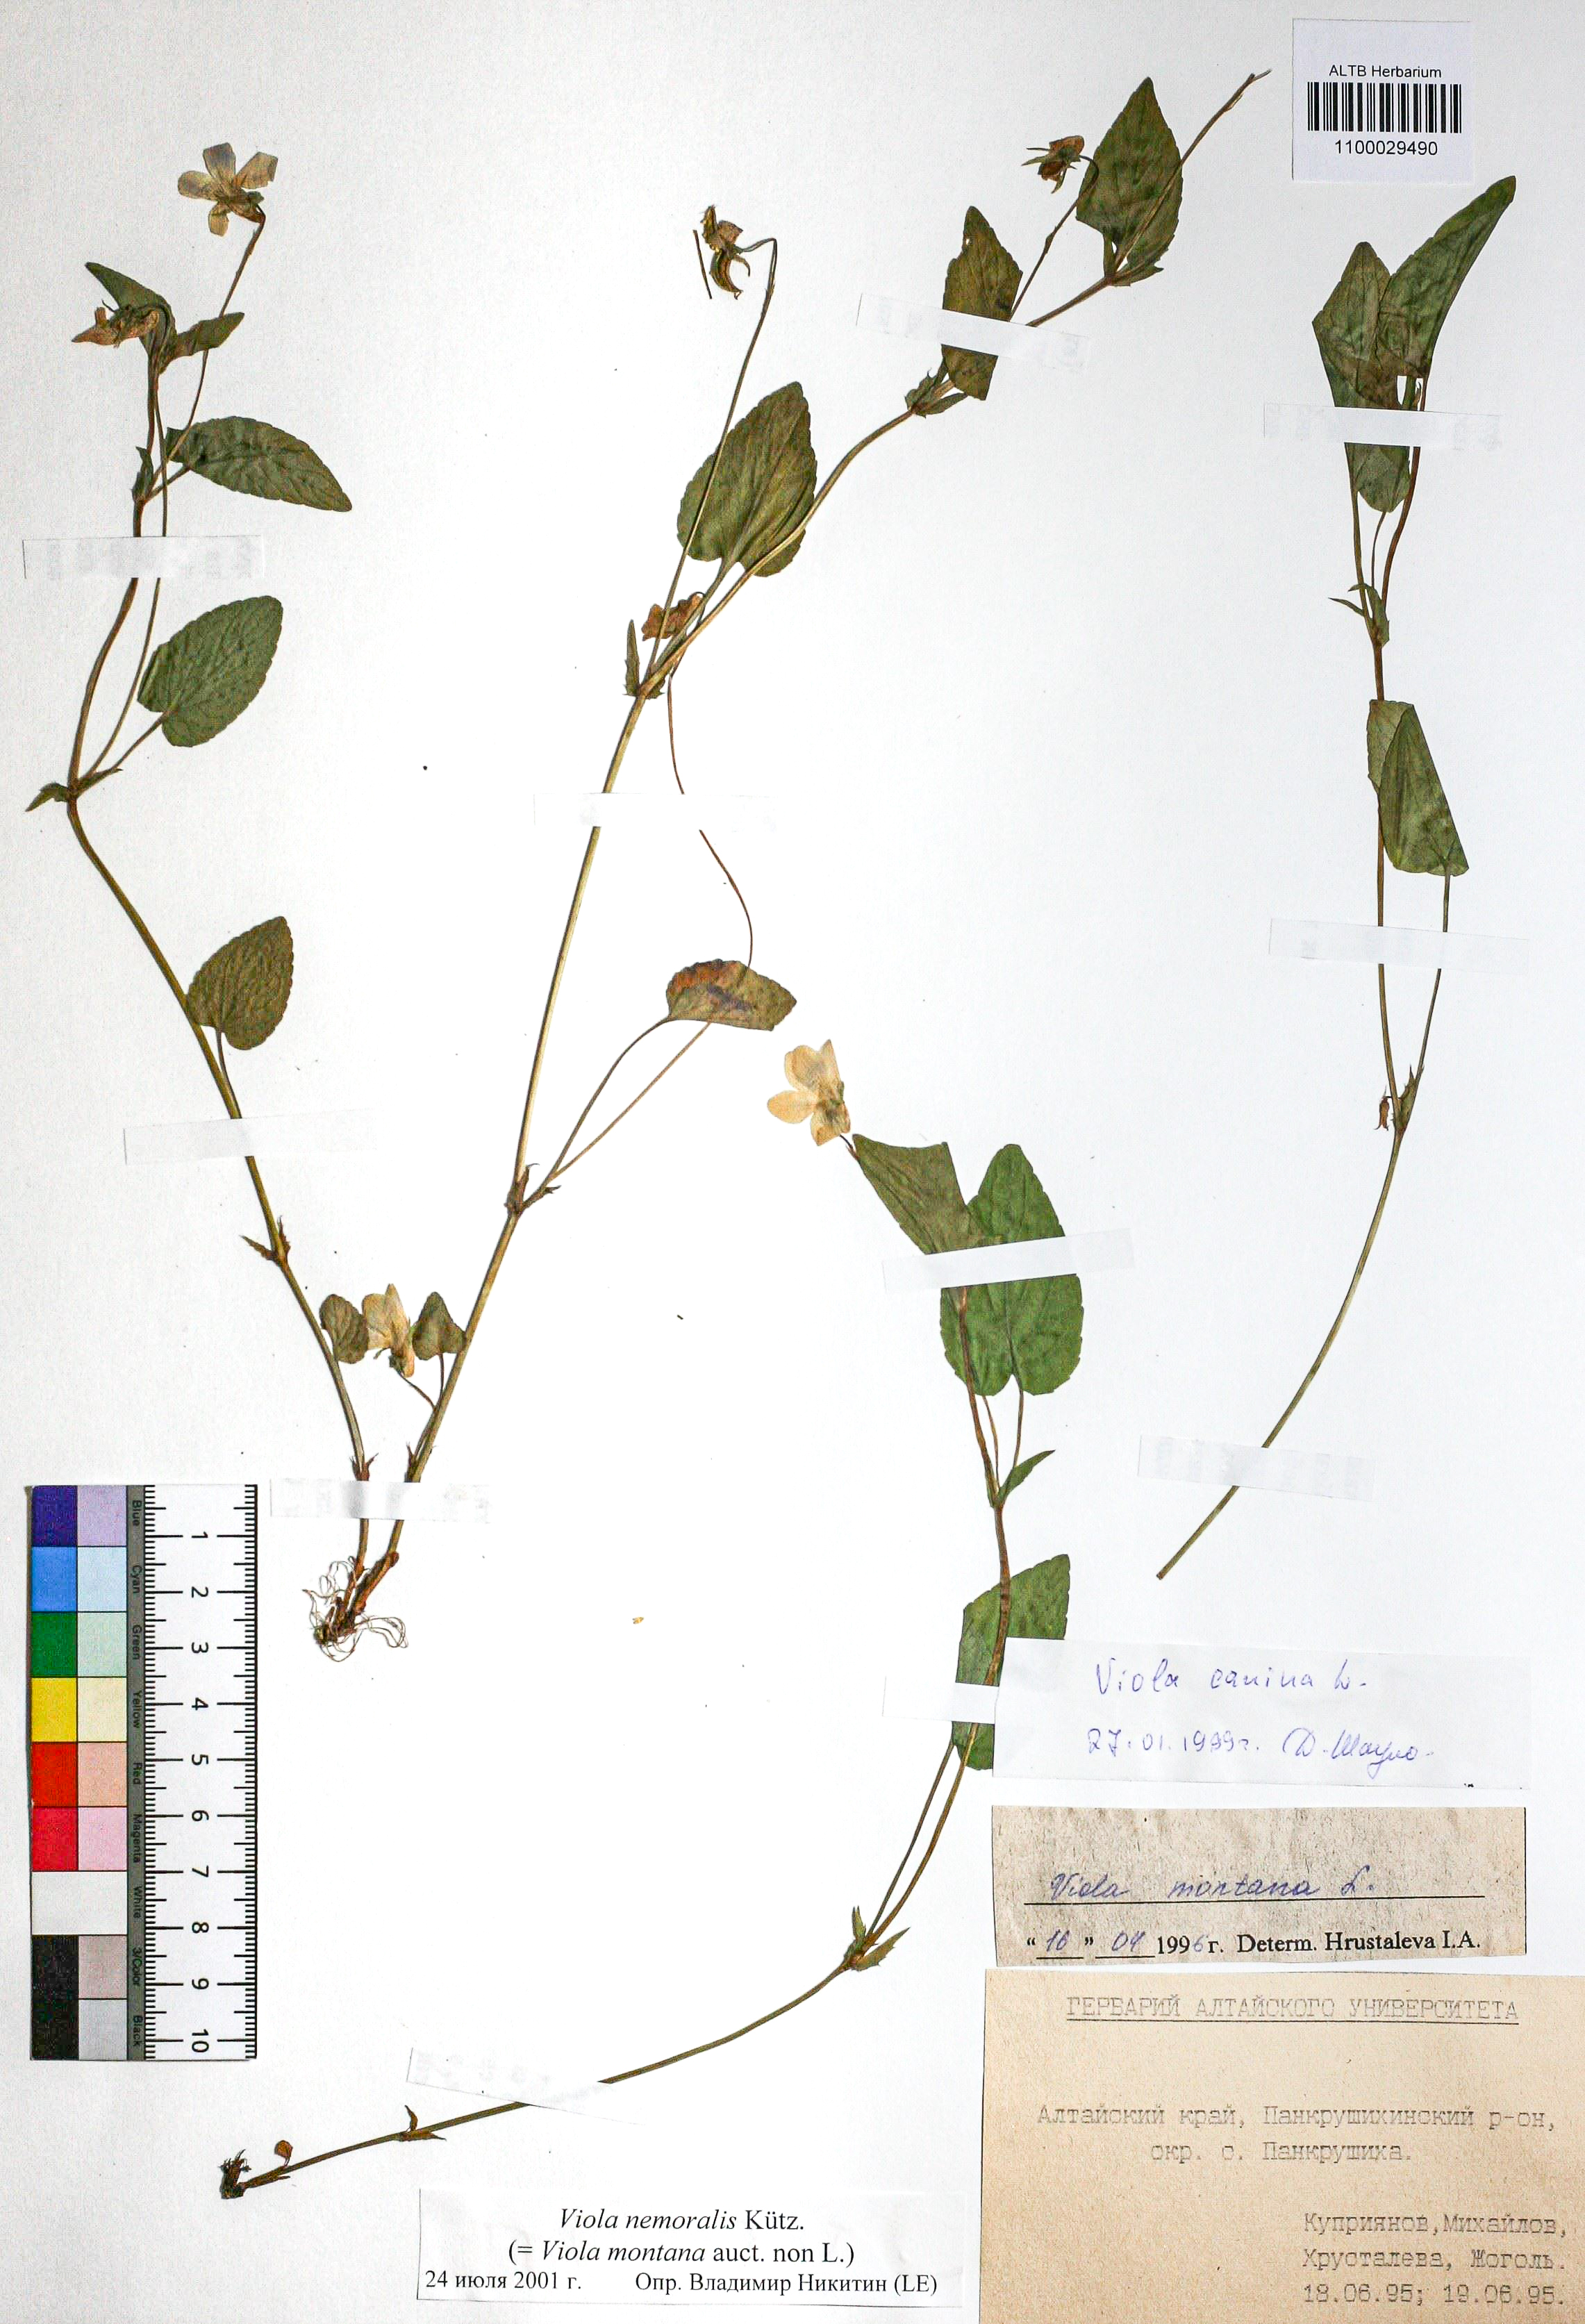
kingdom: Plantae
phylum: Tracheophyta
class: Magnoliopsida
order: Malpighiales
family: Violaceae
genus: Viola
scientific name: Viola ruppii
